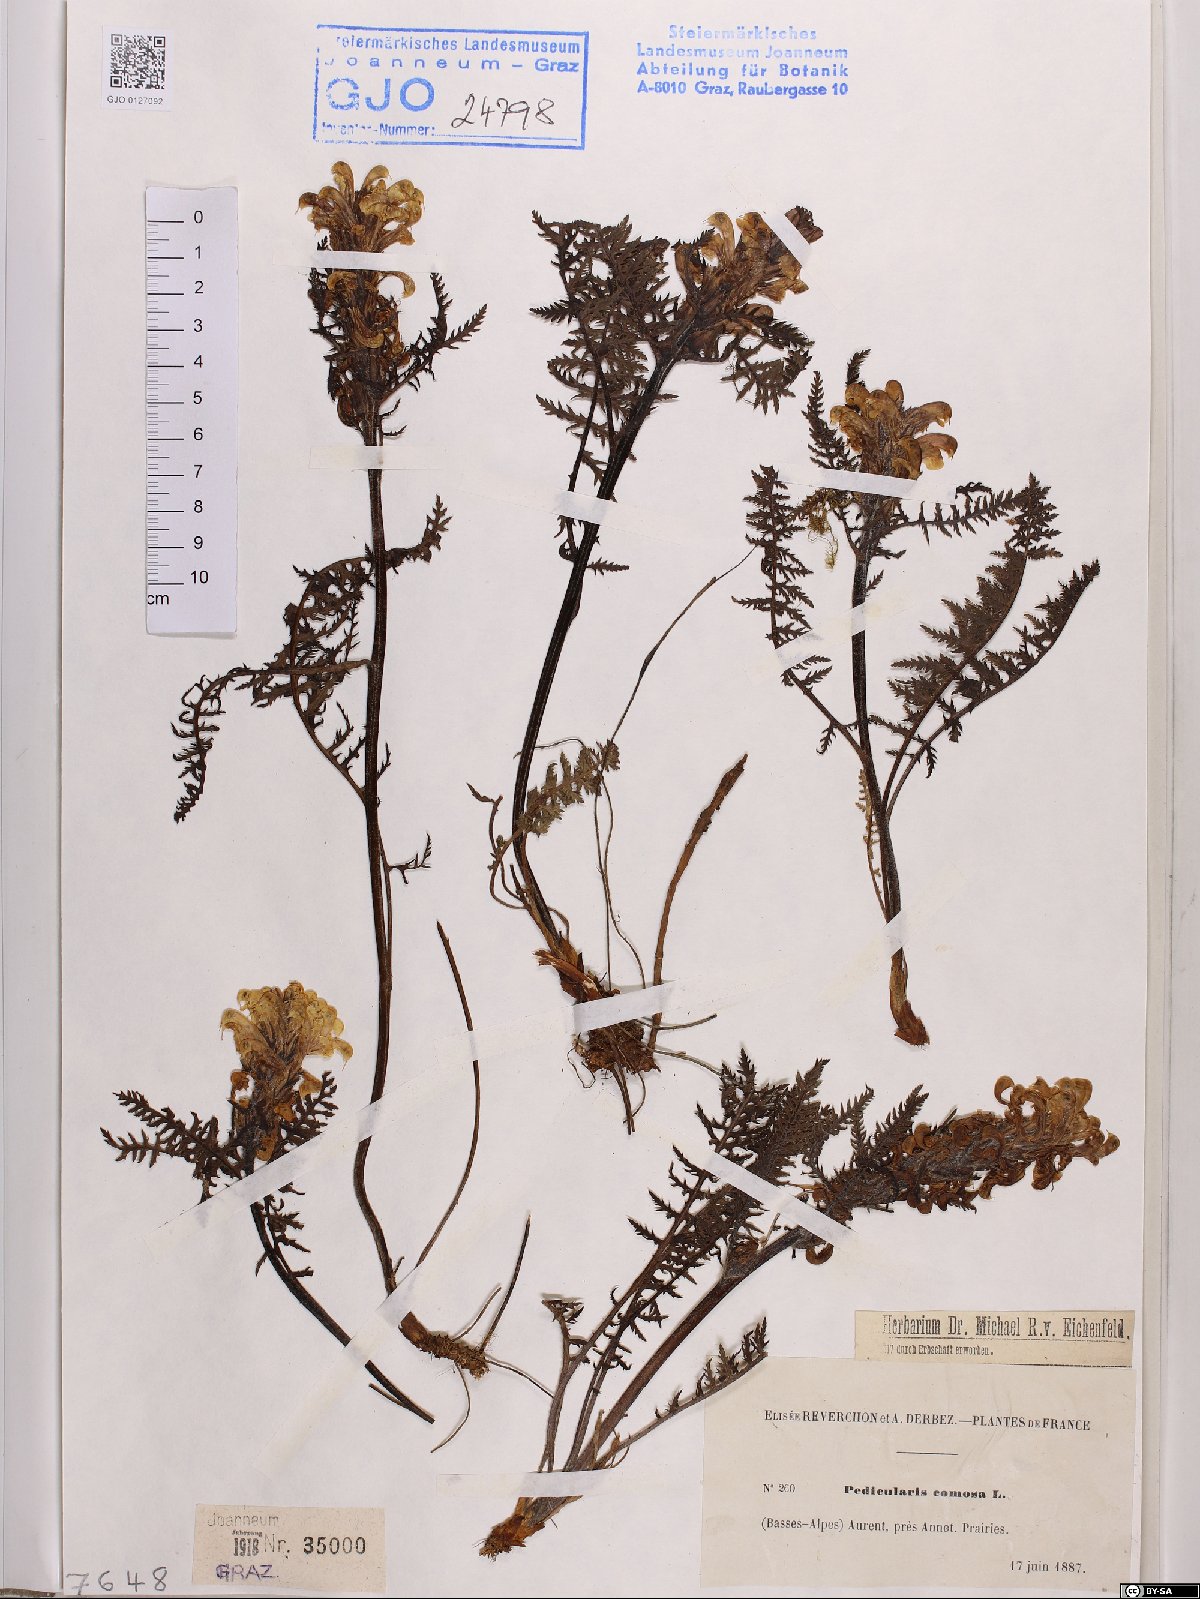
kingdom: Plantae
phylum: Tracheophyta
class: Magnoliopsida
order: Lamiales
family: Orobanchaceae
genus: Pedicularis
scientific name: Pedicularis comosa
